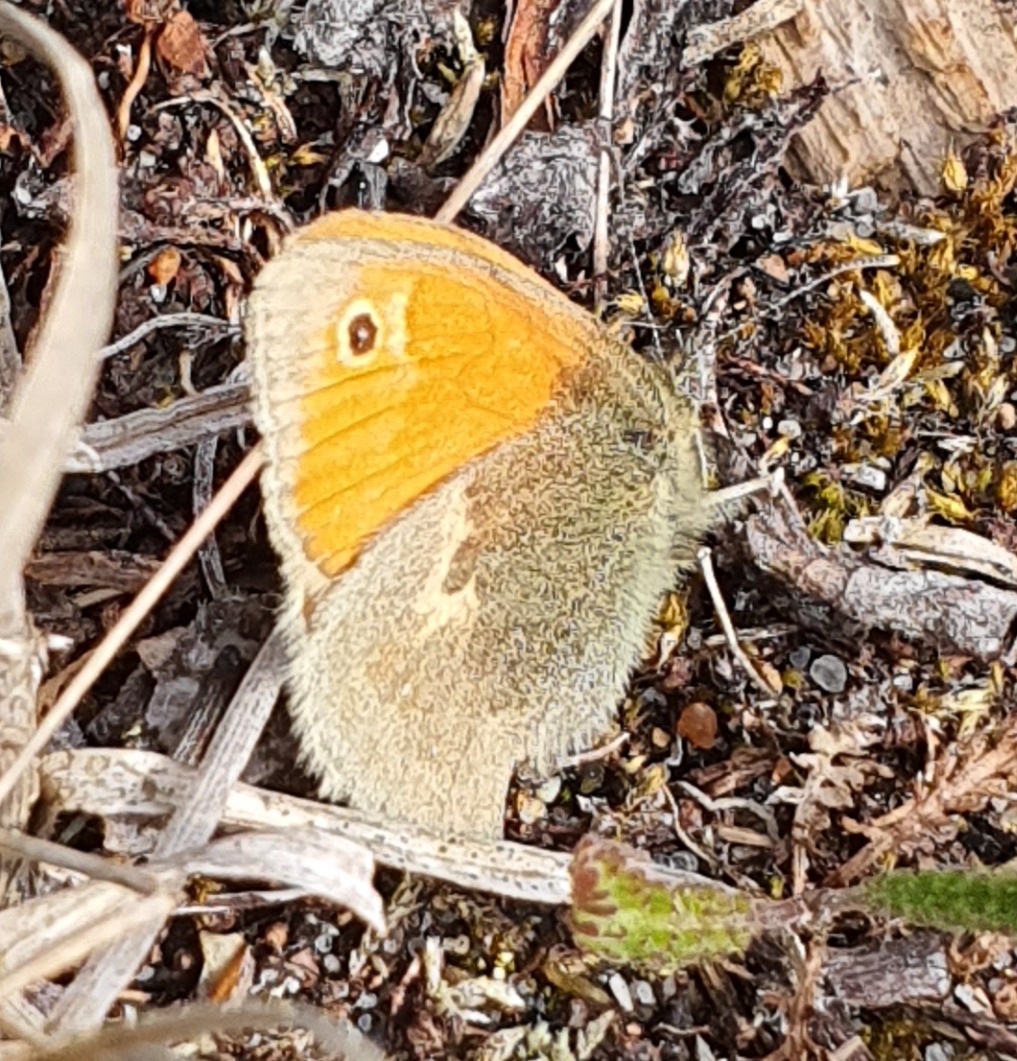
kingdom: Animalia
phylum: Arthropoda
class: Insecta
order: Lepidoptera
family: Nymphalidae
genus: Coenonympha
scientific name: Coenonympha pamphilus
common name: Okkergul randøje
